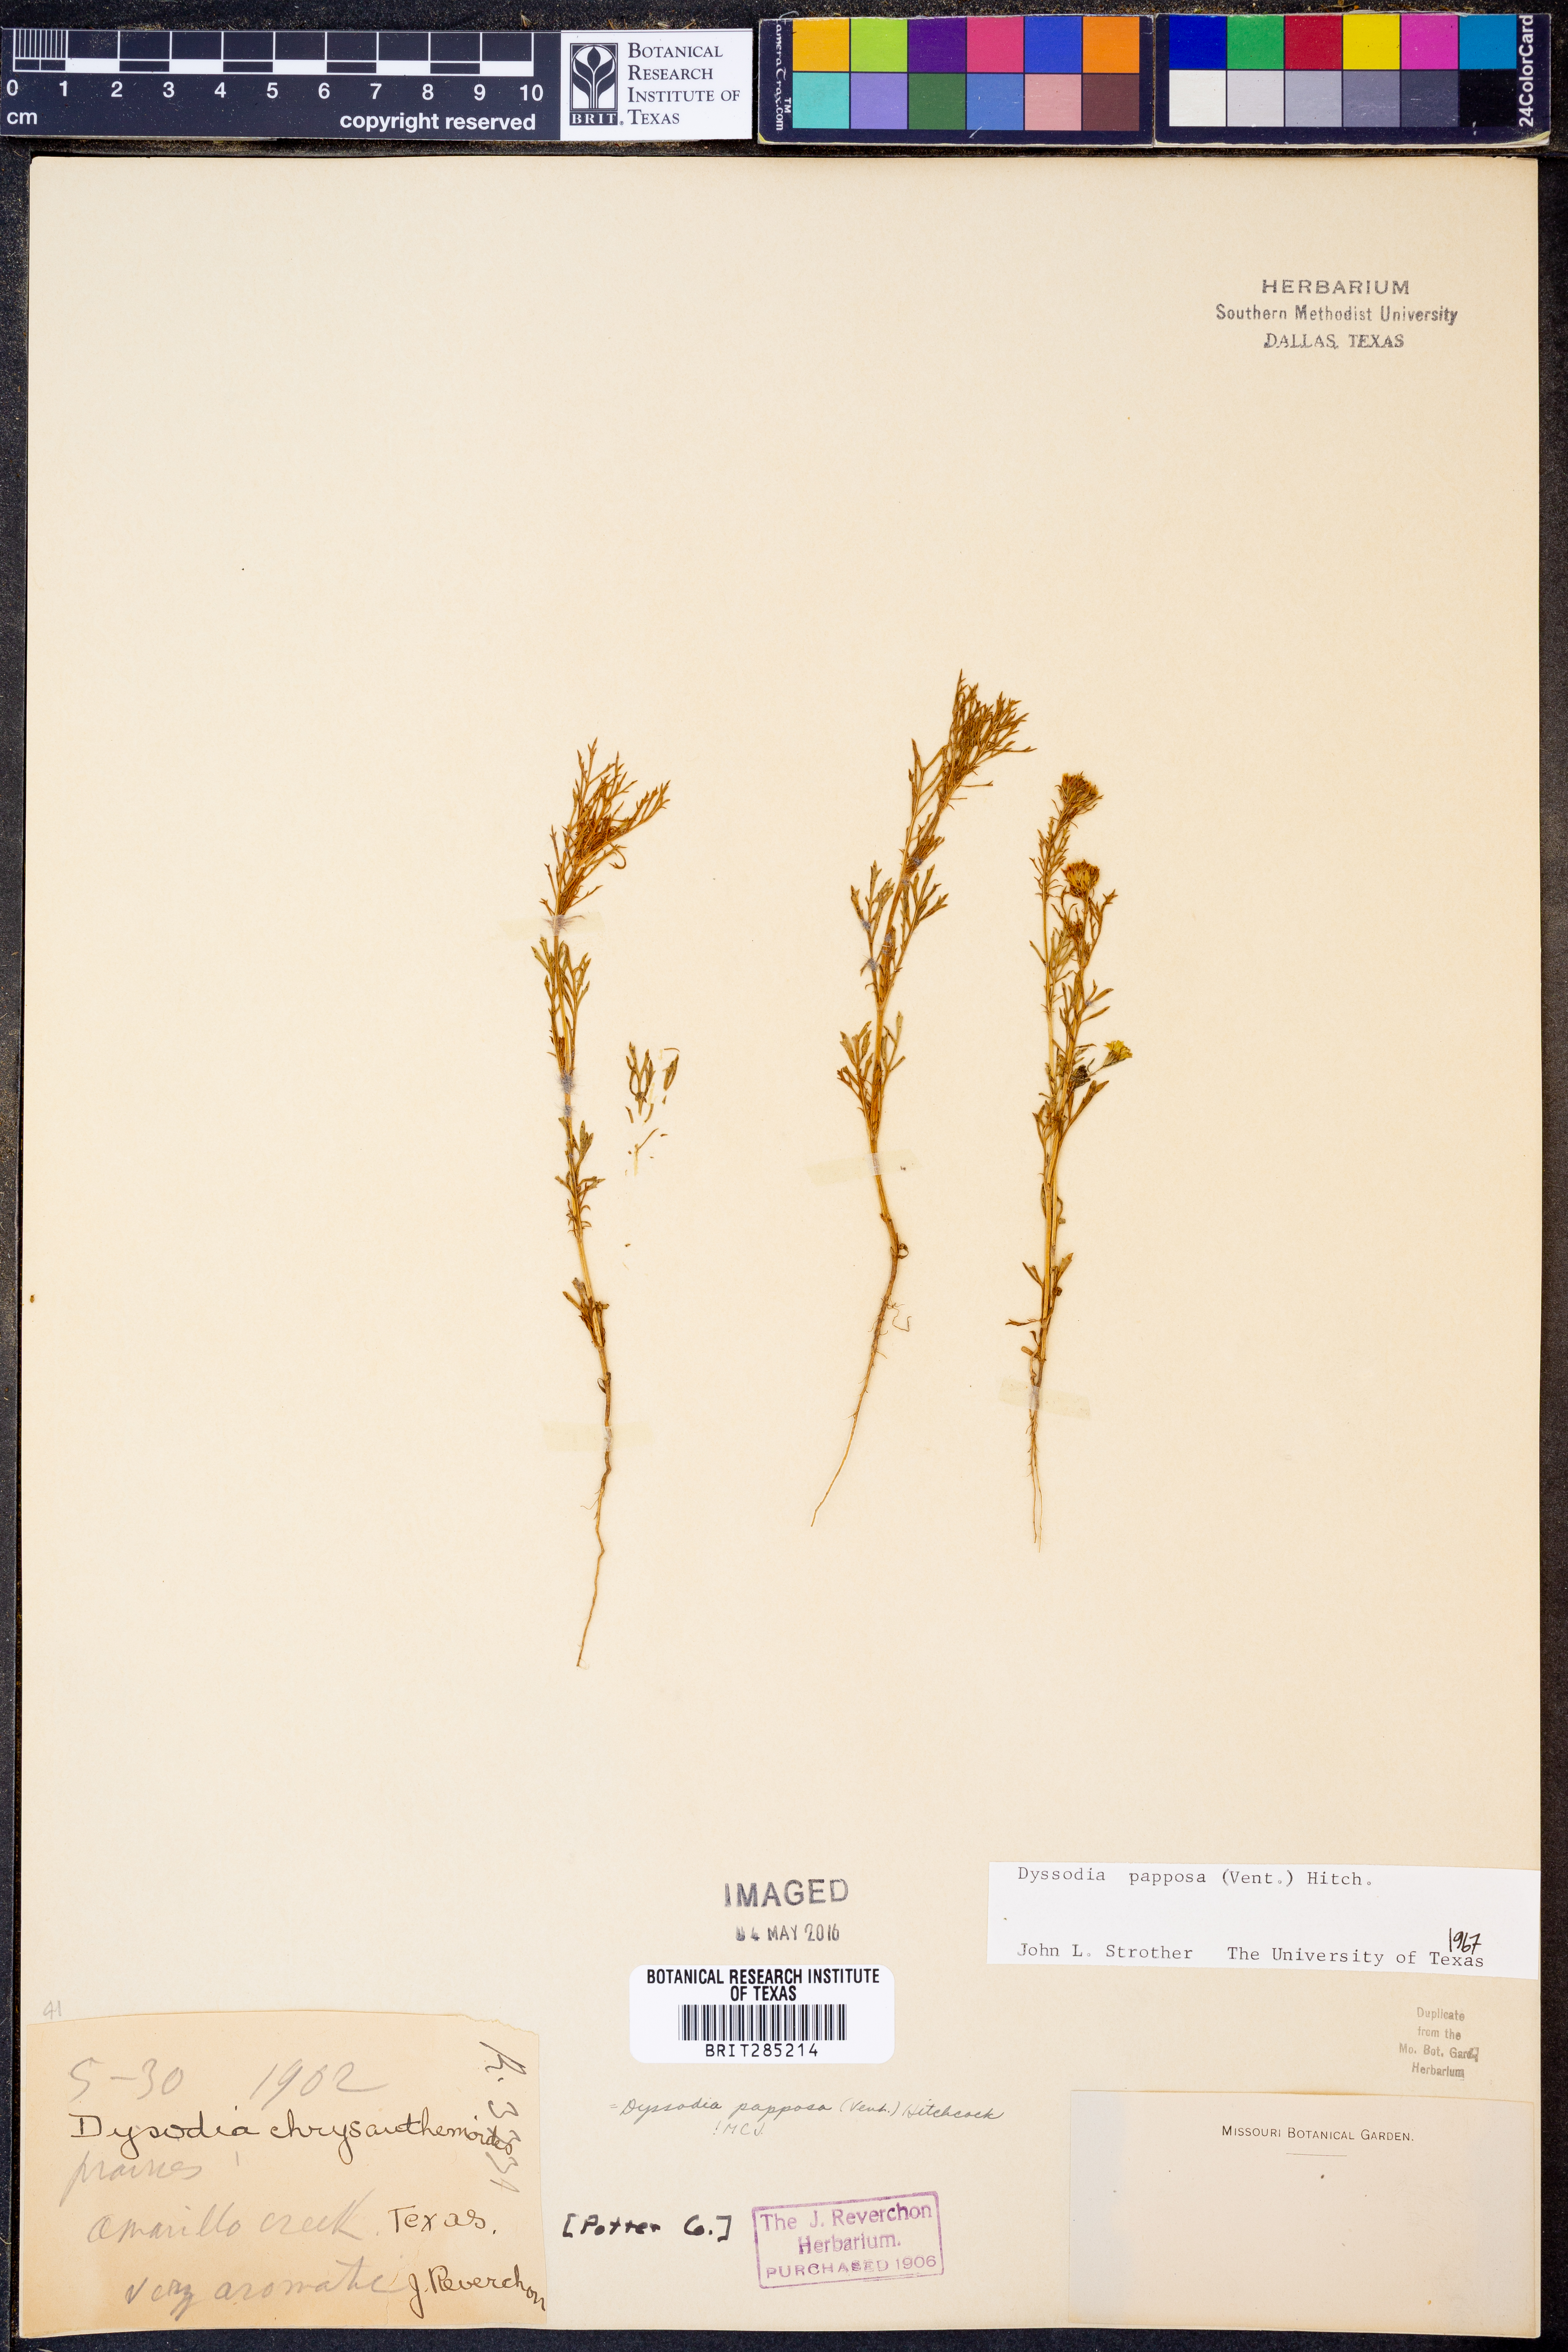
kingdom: Plantae
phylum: Tracheophyta
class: Magnoliopsida
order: Asterales
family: Asteraceae
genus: Dyssodia
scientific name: Dyssodia papposa
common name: Dogweed
